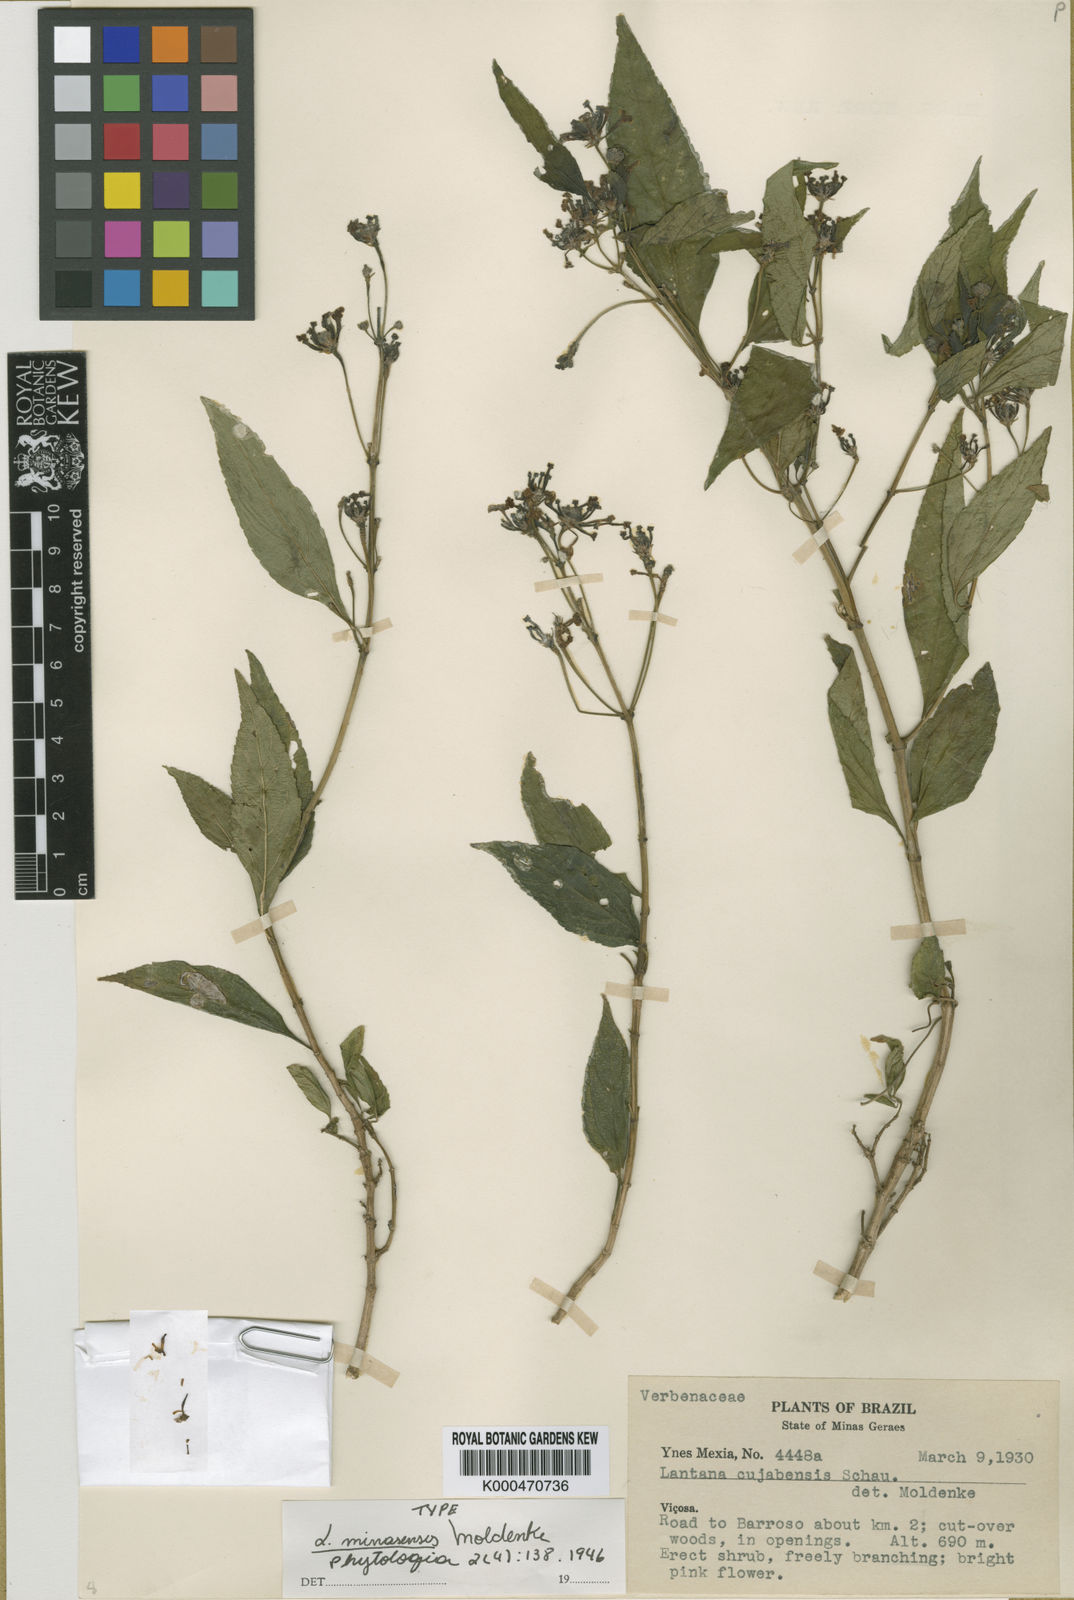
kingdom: Plantae
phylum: Tracheophyta
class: Magnoliopsida
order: Lamiales
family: Verbenaceae
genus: Lantana
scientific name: Lantana nivea
